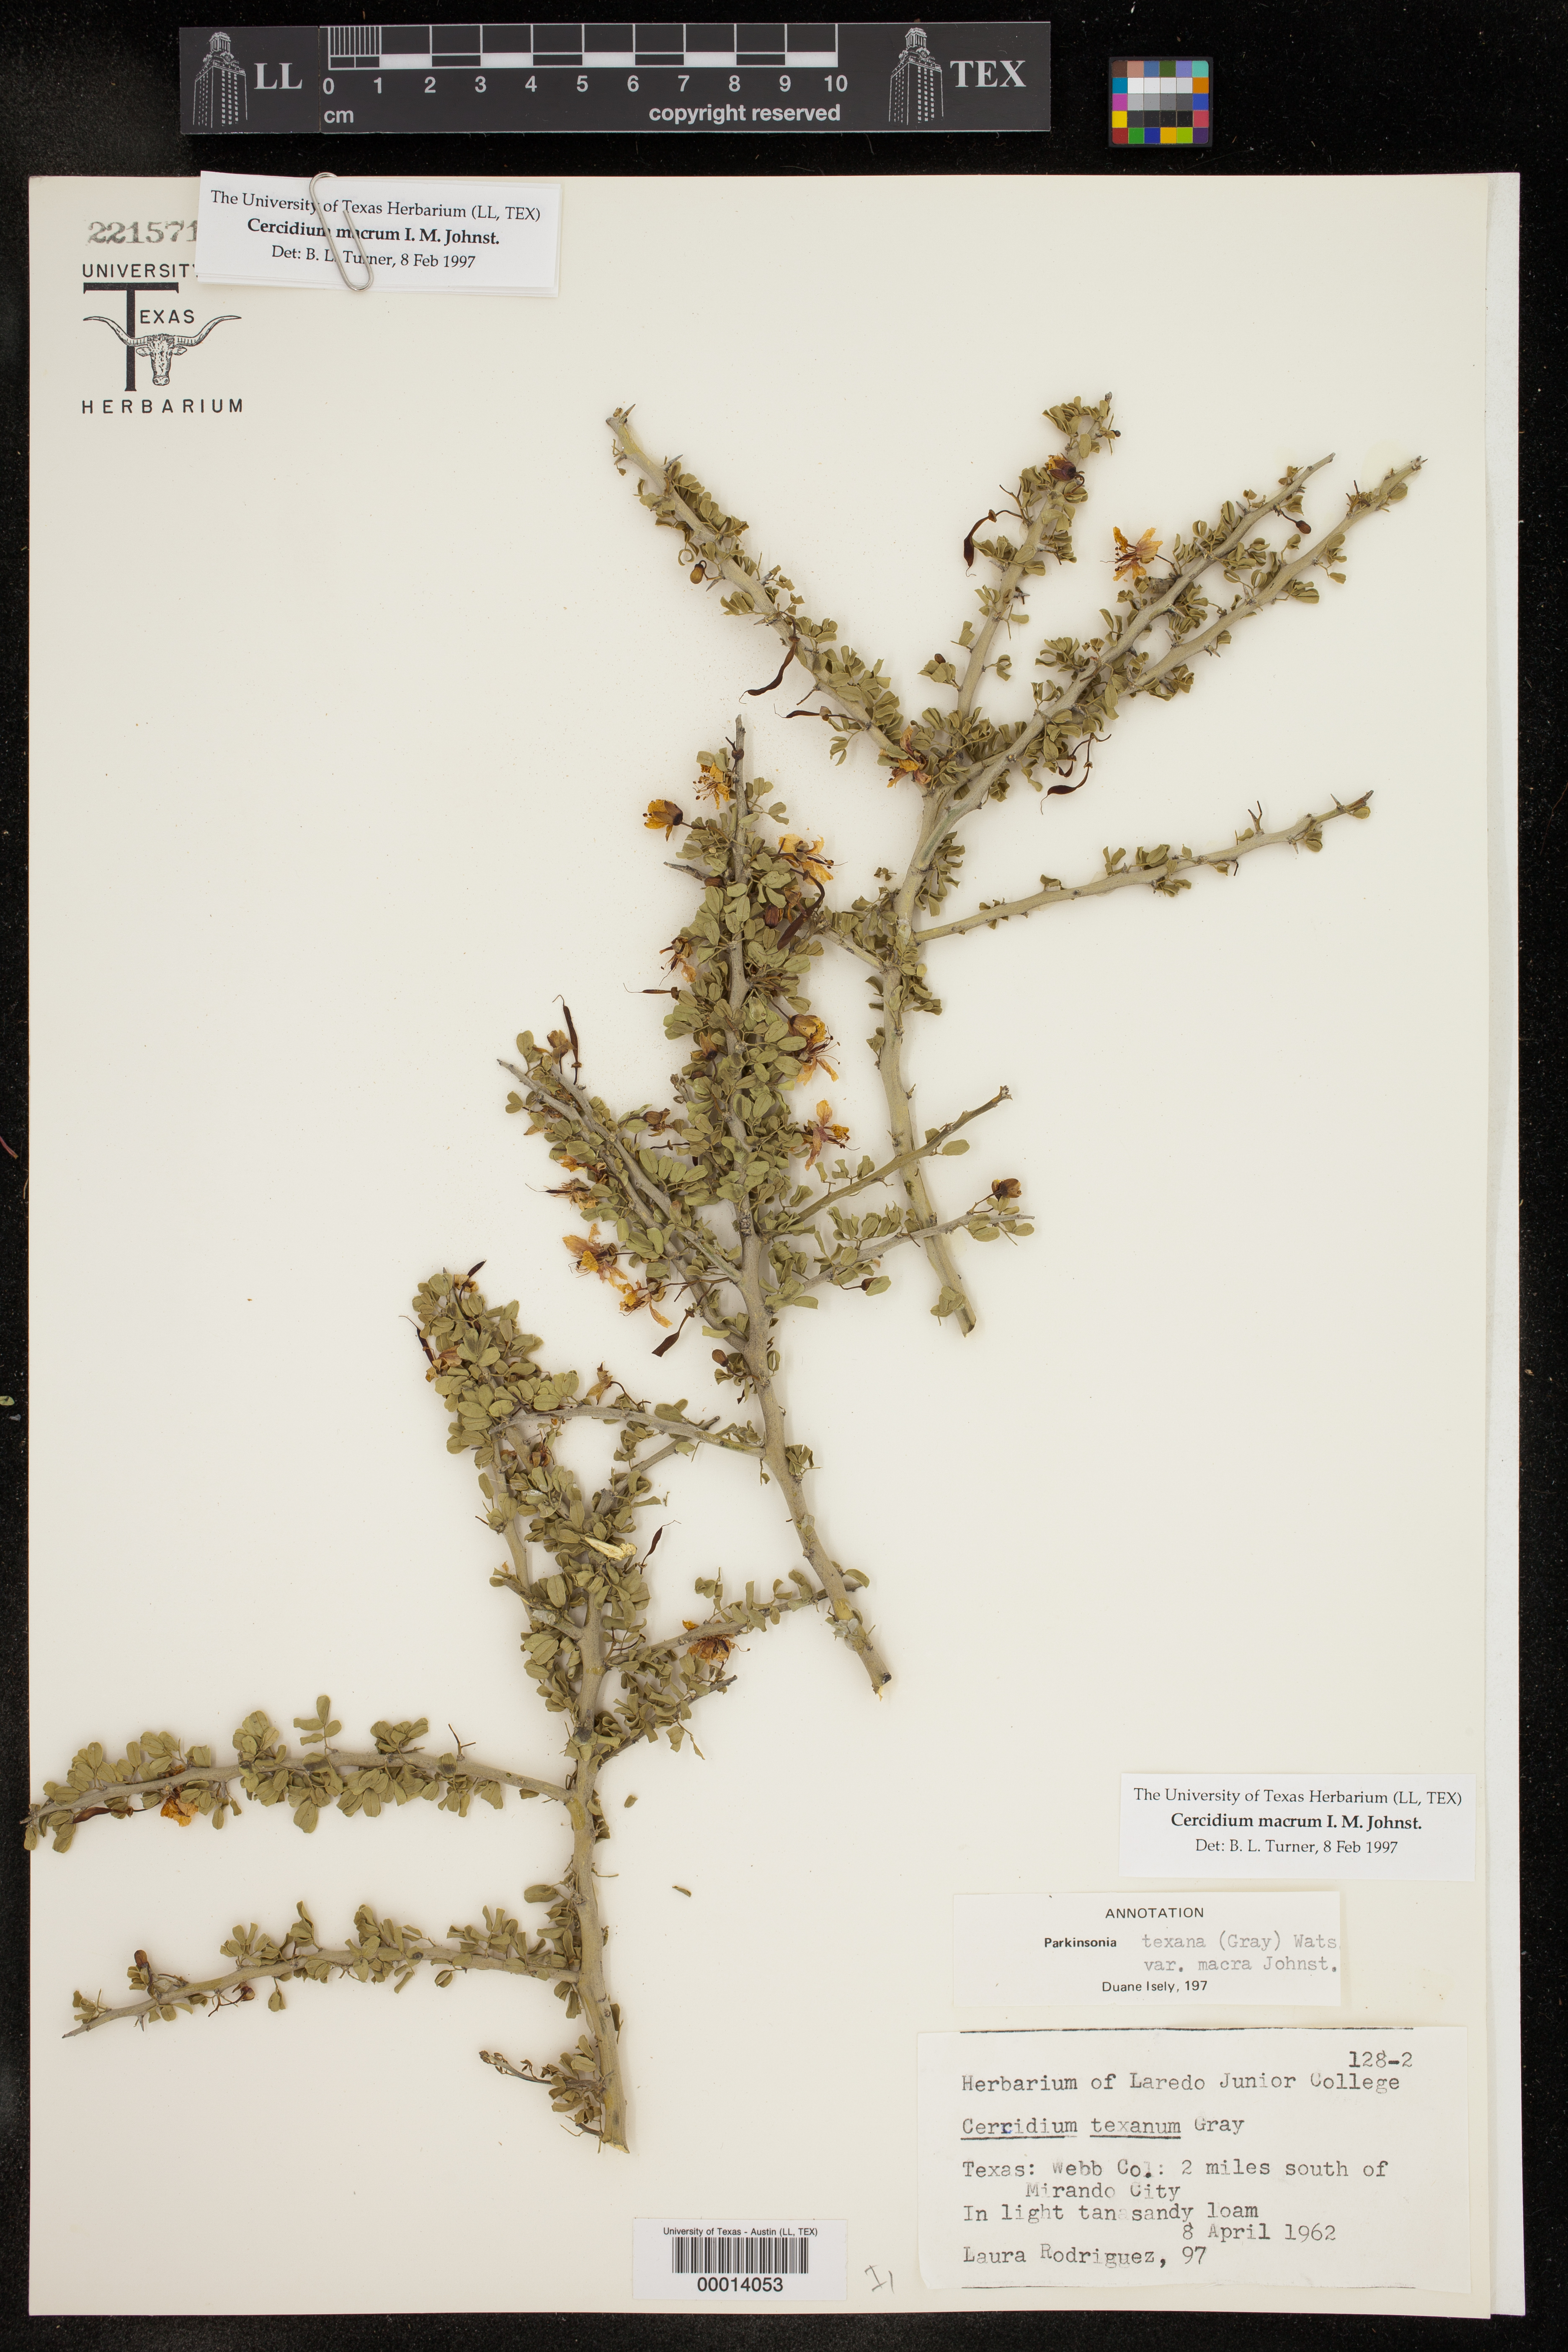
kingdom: Plantae
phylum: Tracheophyta
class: Magnoliopsida
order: Fabales
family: Fabaceae
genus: Parkinsonia
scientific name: Parkinsonia texana
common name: Texas paloverde
